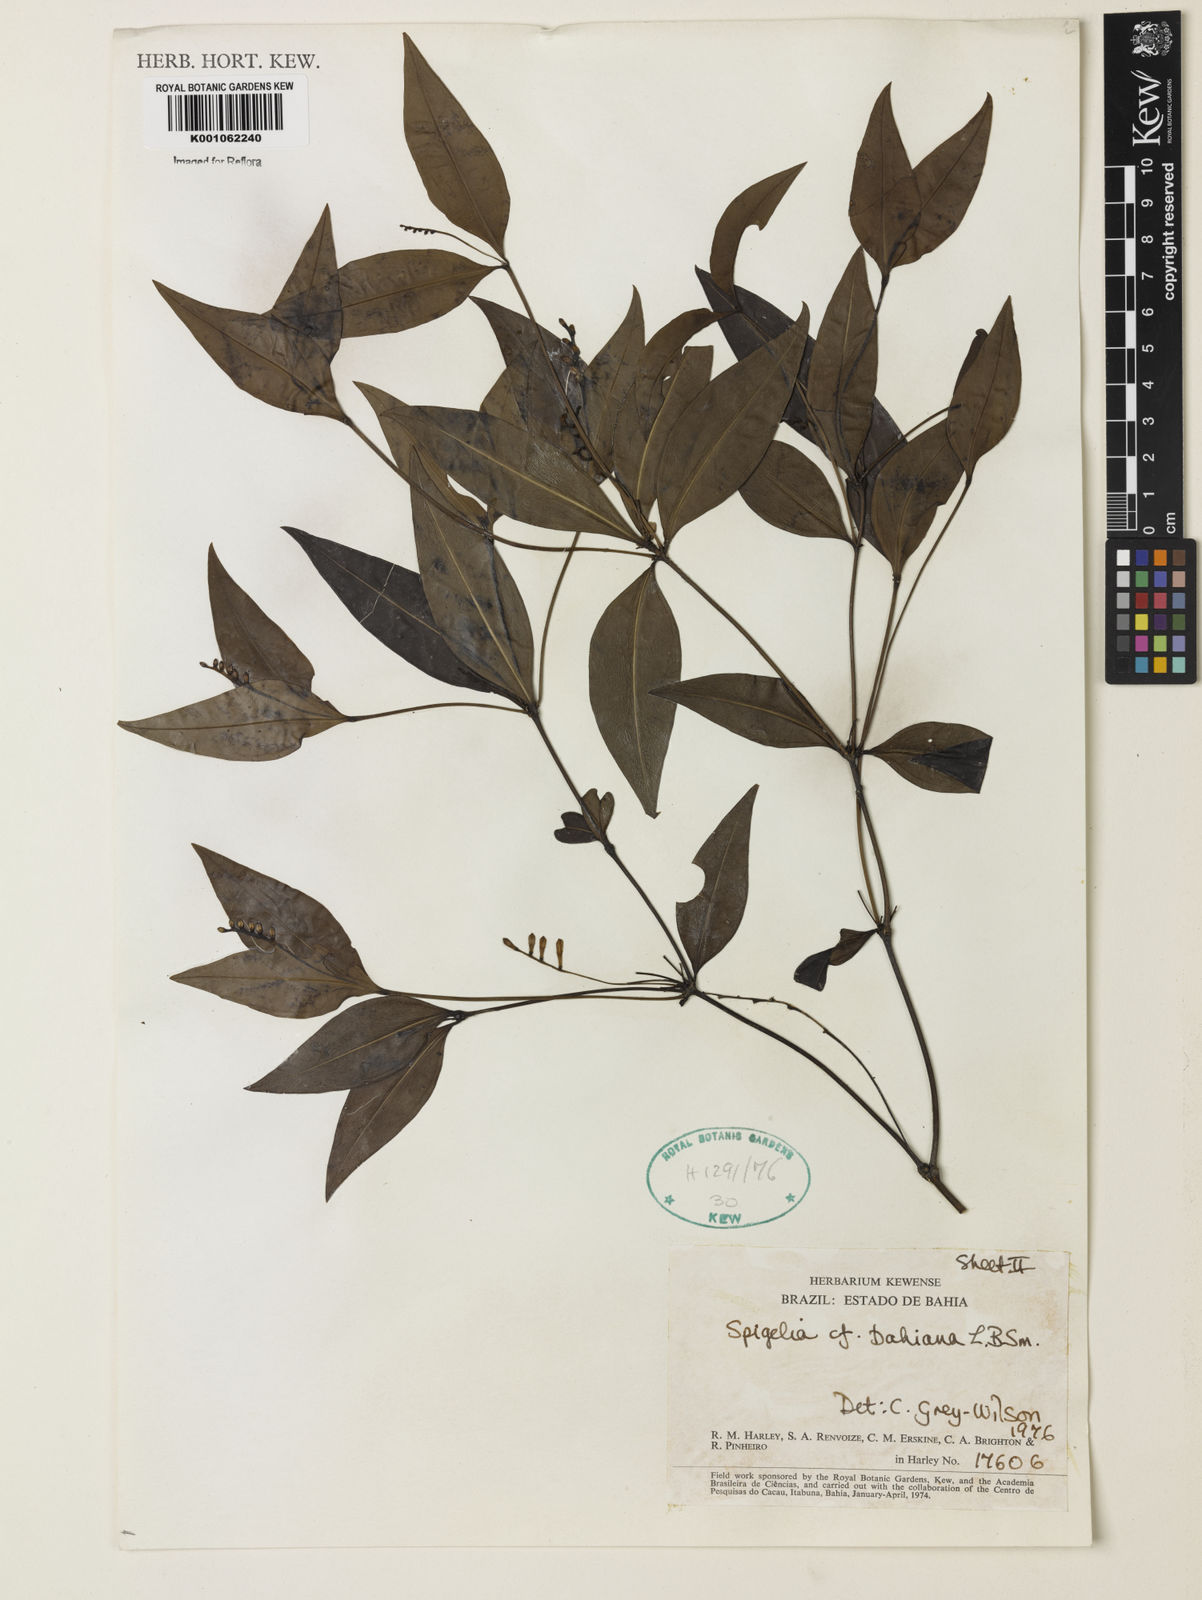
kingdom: Plantae
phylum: Tracheophyta
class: Magnoliopsida
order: Gentianales
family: Loganiaceae
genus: Spigelia
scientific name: Spigelia laurina
